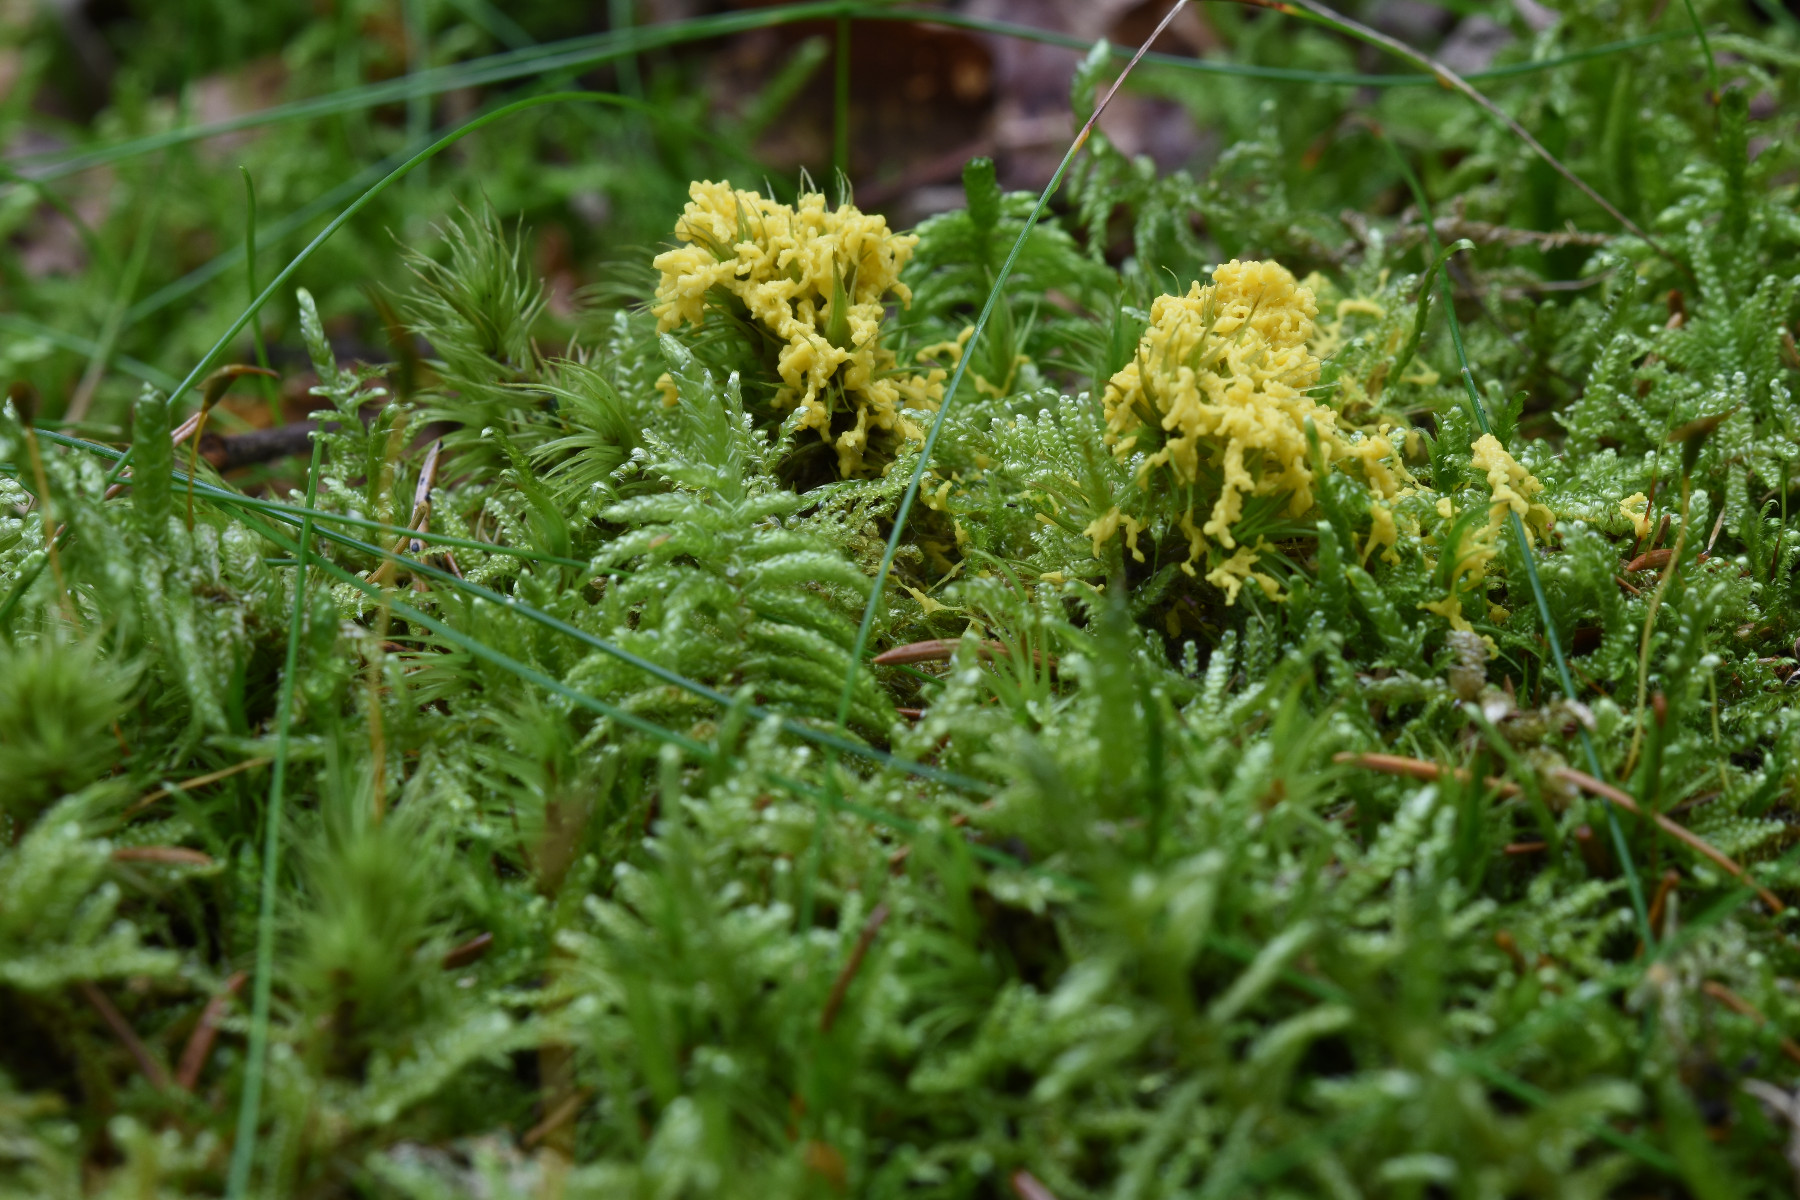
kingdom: Protozoa
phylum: Mycetozoa
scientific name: Mycetozoa
